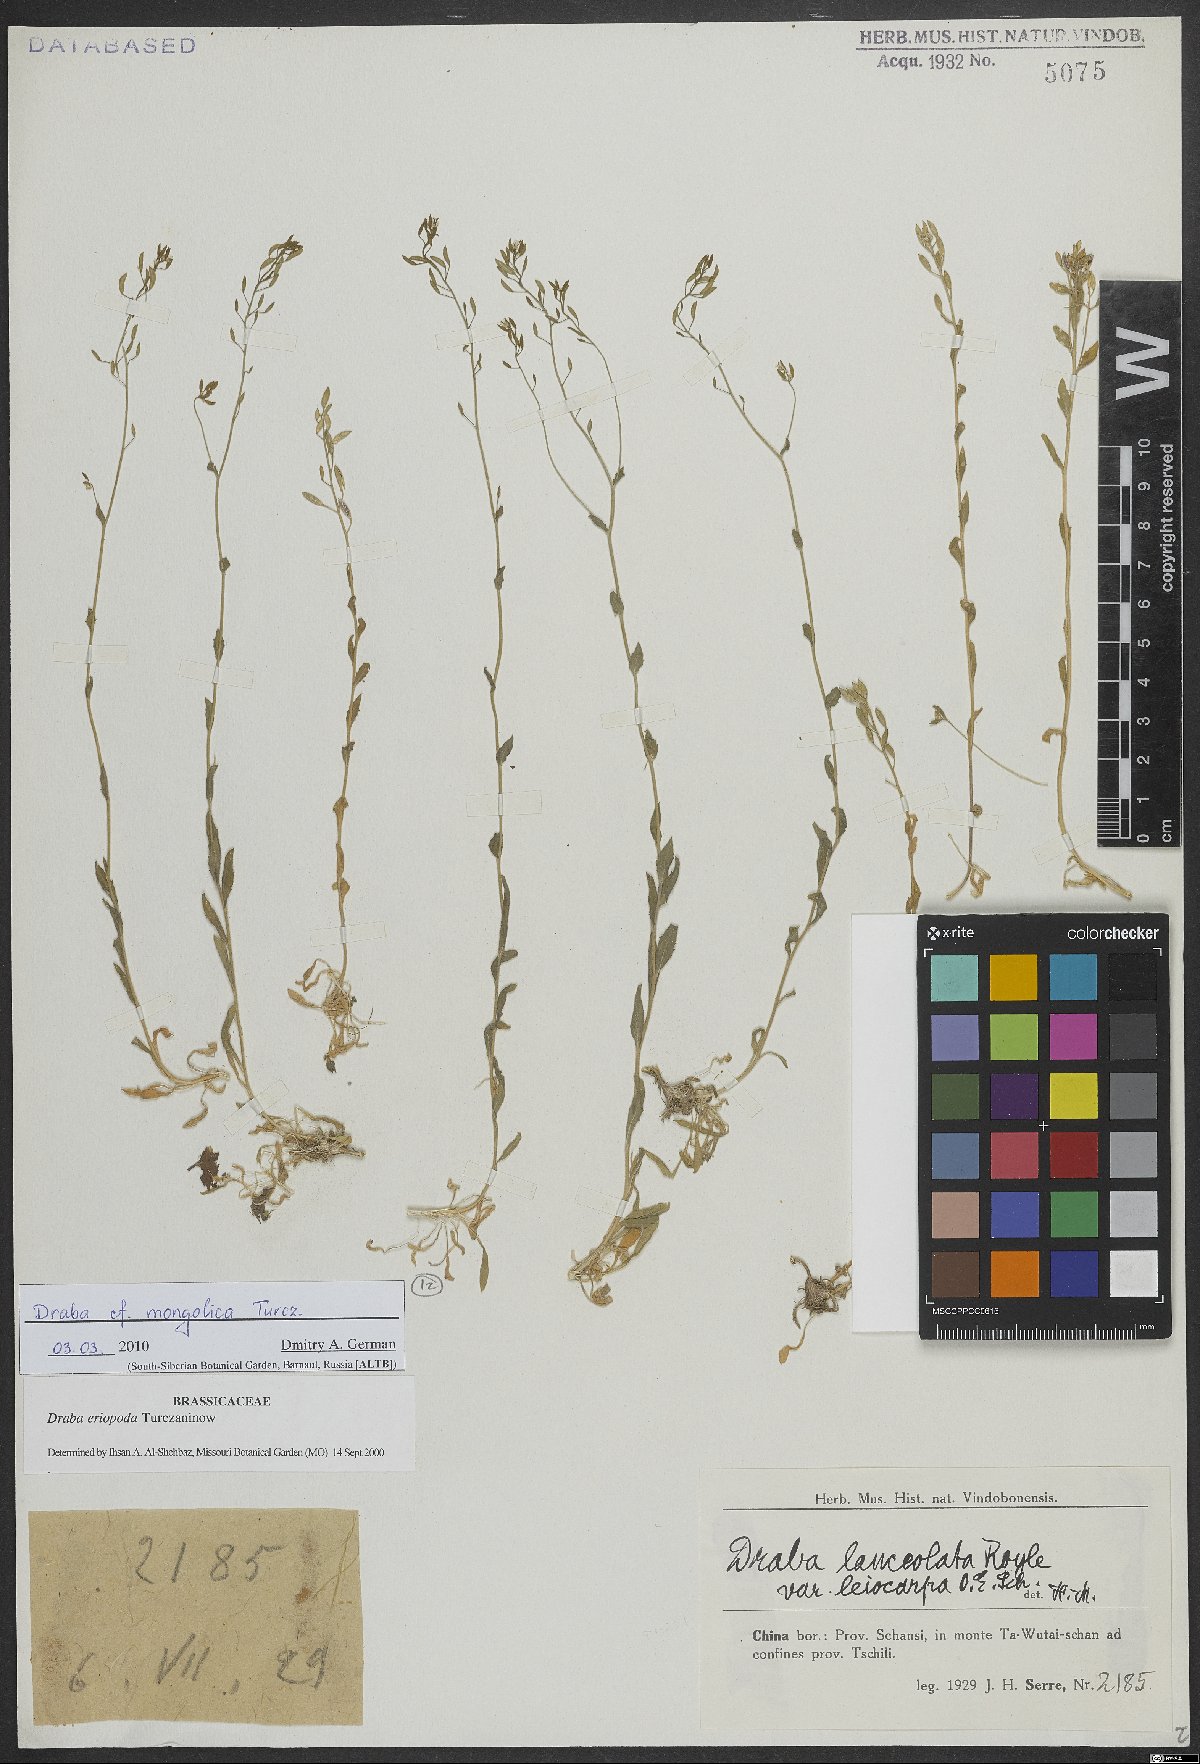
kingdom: Plantae
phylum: Tracheophyta
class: Magnoliopsida
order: Brassicales
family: Brassicaceae
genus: Draba
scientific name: Draba mongolica
